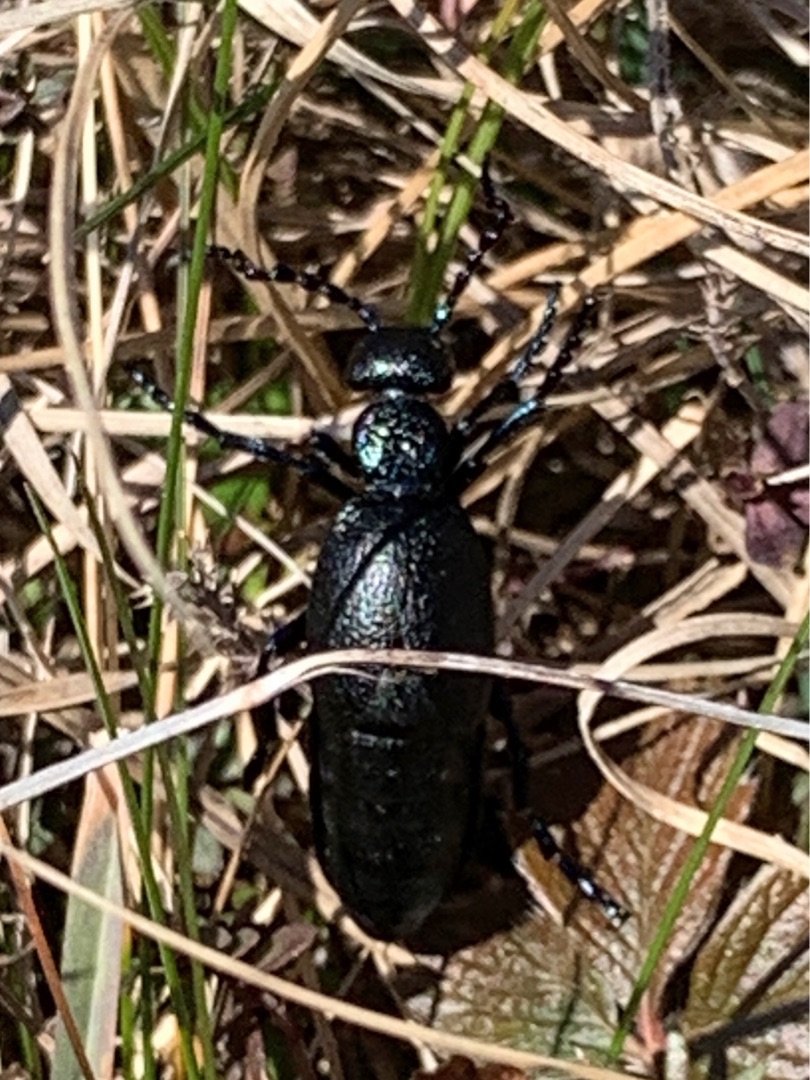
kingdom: Animalia
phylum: Arthropoda
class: Insecta
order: Coleoptera
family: Meloidae
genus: Meloe
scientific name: Meloe proscarabaeus
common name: Sort oliebille
